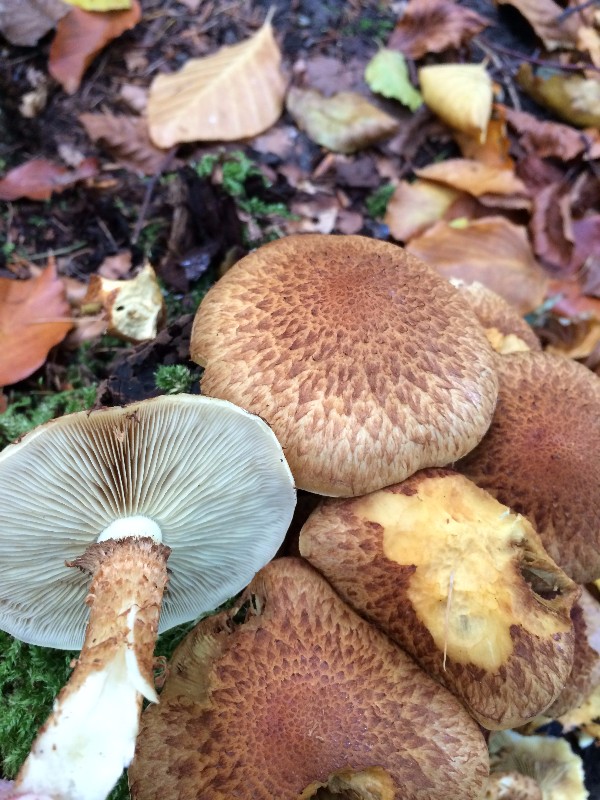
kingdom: Fungi
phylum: Basidiomycota
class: Agaricomycetes
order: Agaricales
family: Strophariaceae
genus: Pholiota
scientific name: Pholiota squarrosa
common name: krumskællet skælhat
